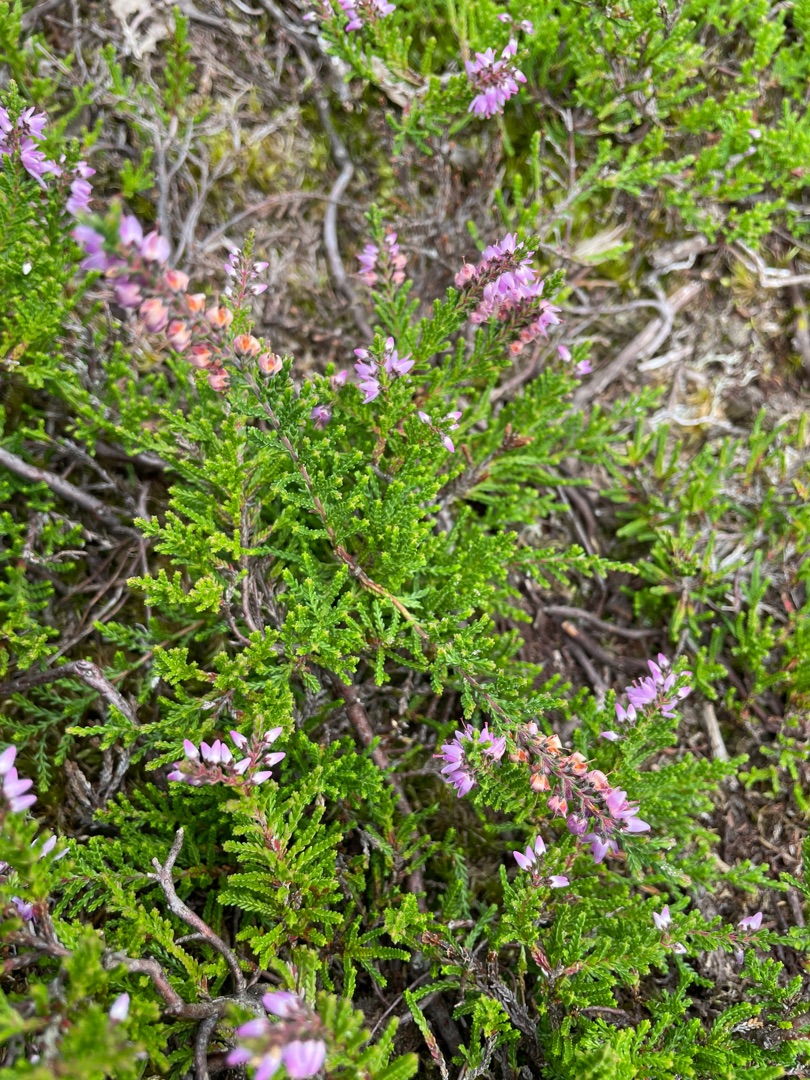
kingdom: Plantae
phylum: Tracheophyta
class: Magnoliopsida
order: Ericales
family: Ericaceae
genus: Calluna
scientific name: Calluna vulgaris
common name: Hedelyng
